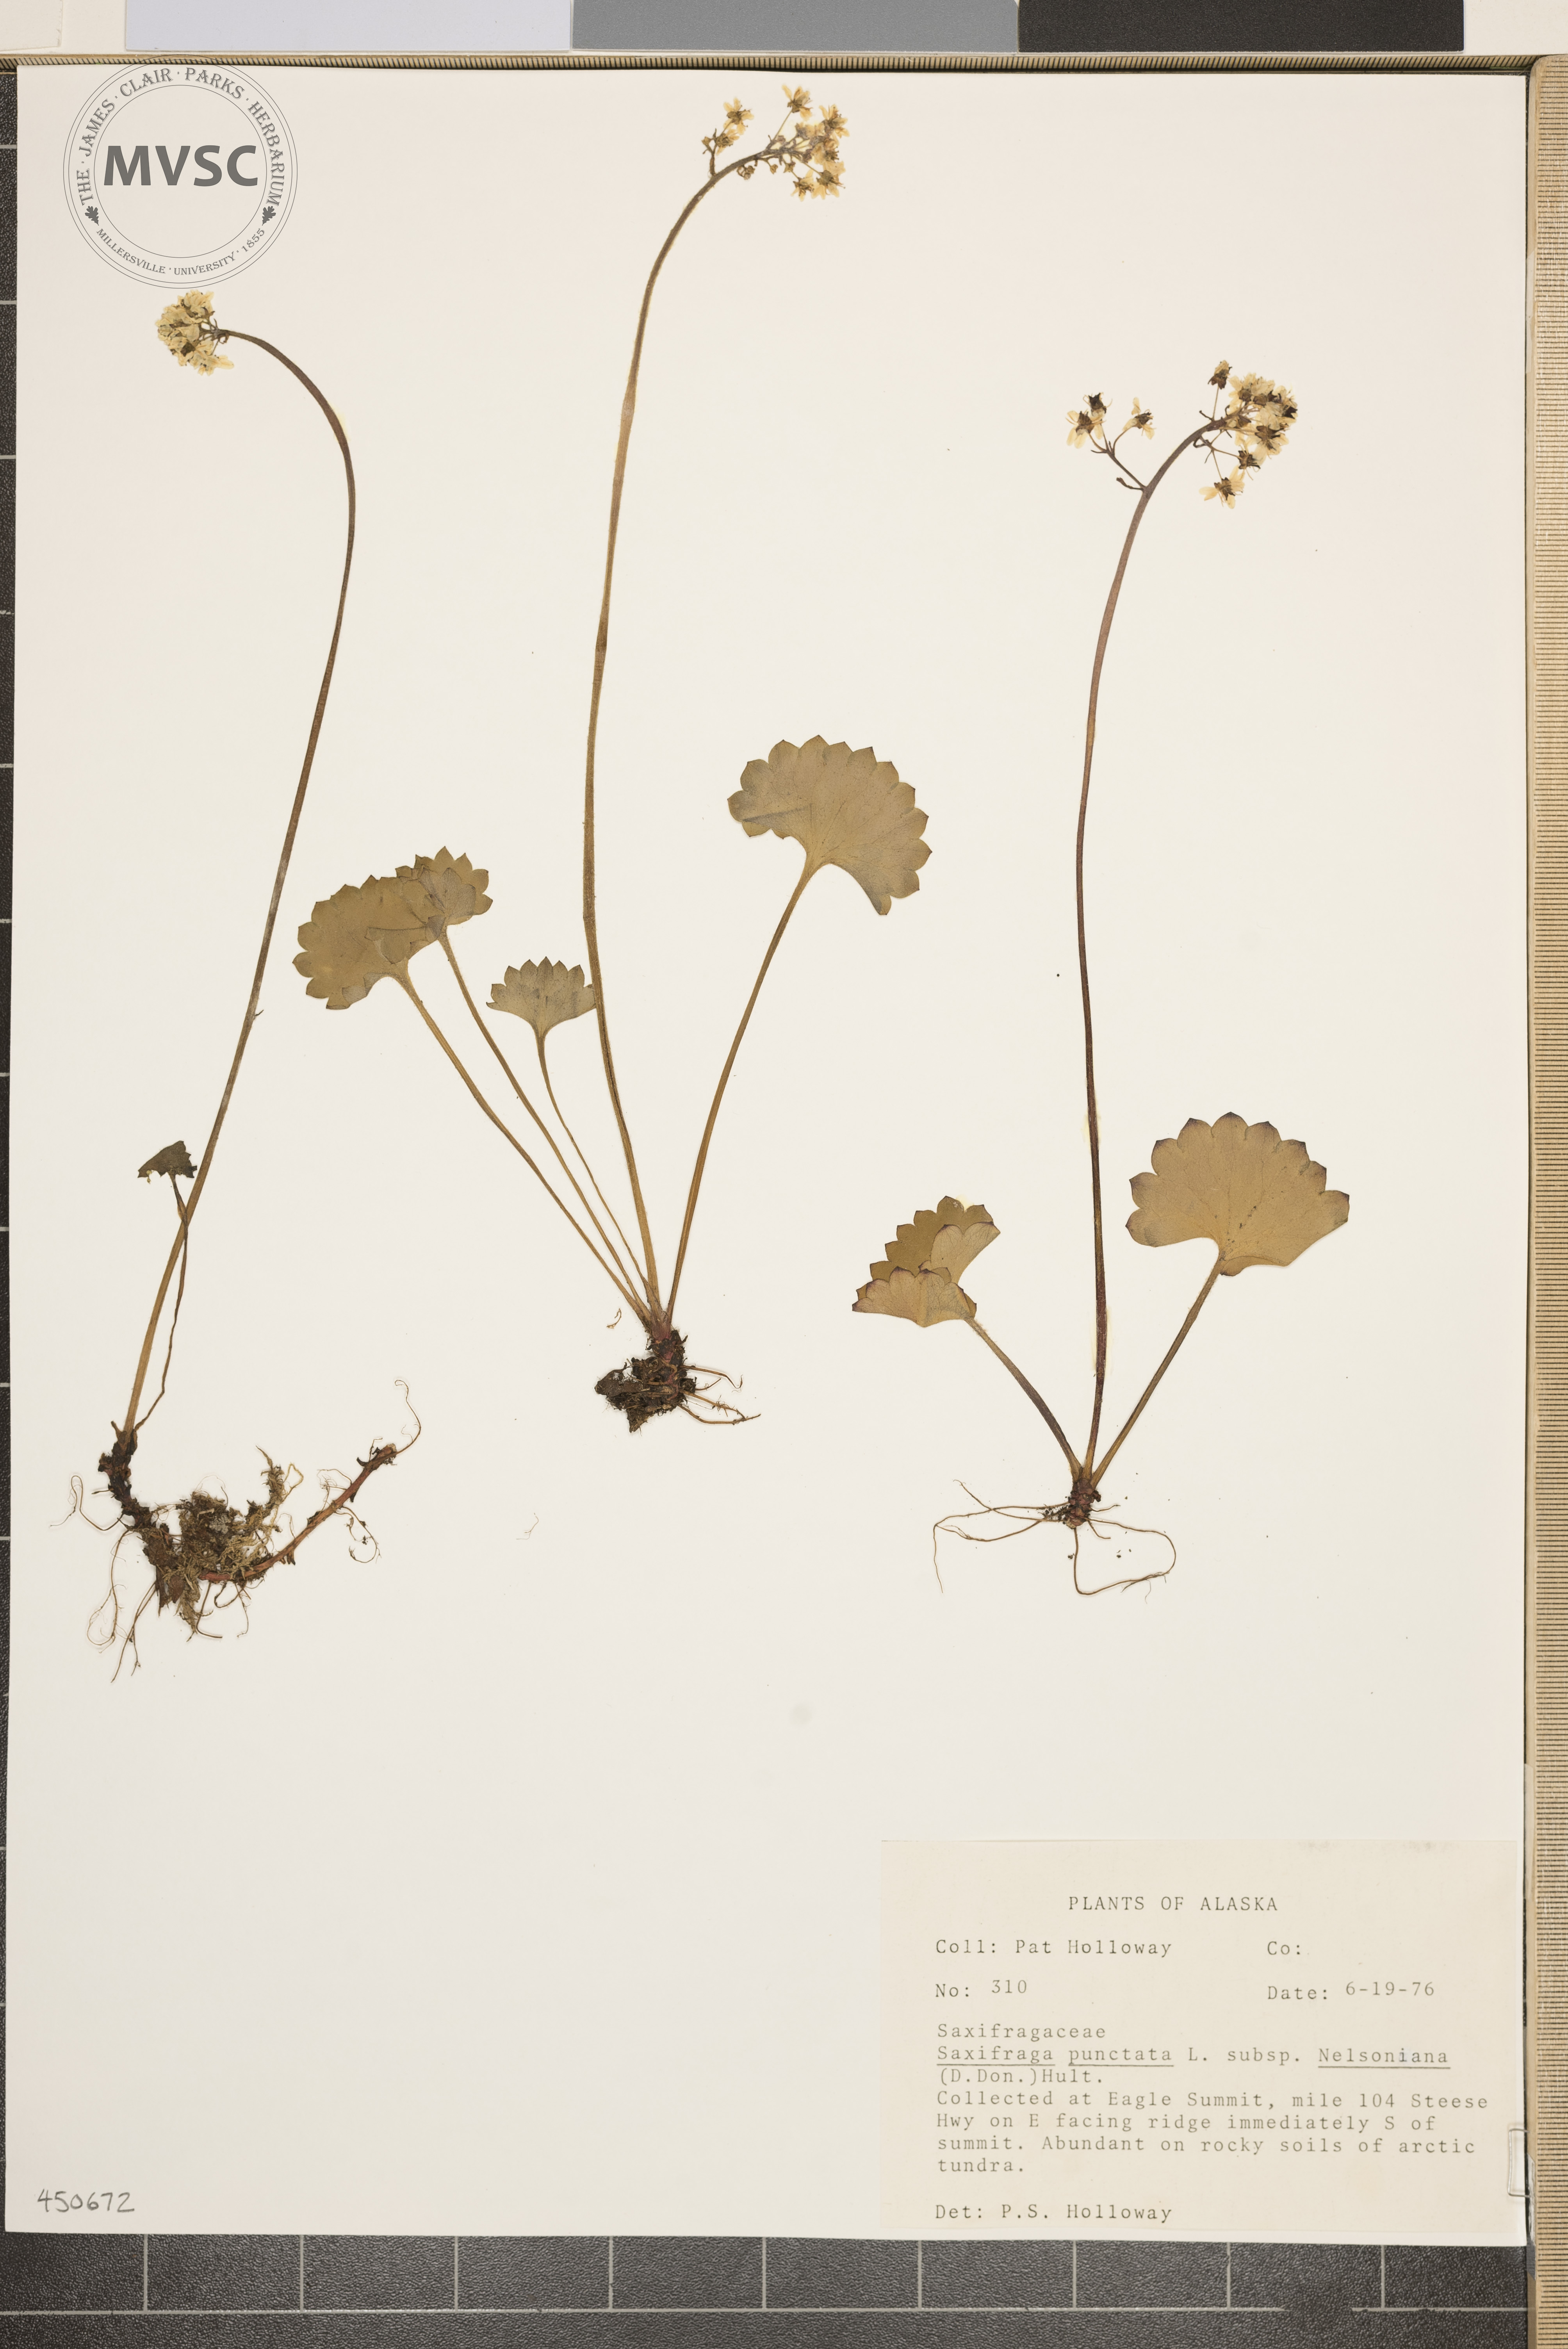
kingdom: Plantae
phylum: Tracheophyta
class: Magnoliopsida
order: Saxifragales
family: Saxifragaceae
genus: Micranthes
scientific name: Micranthes punctata
